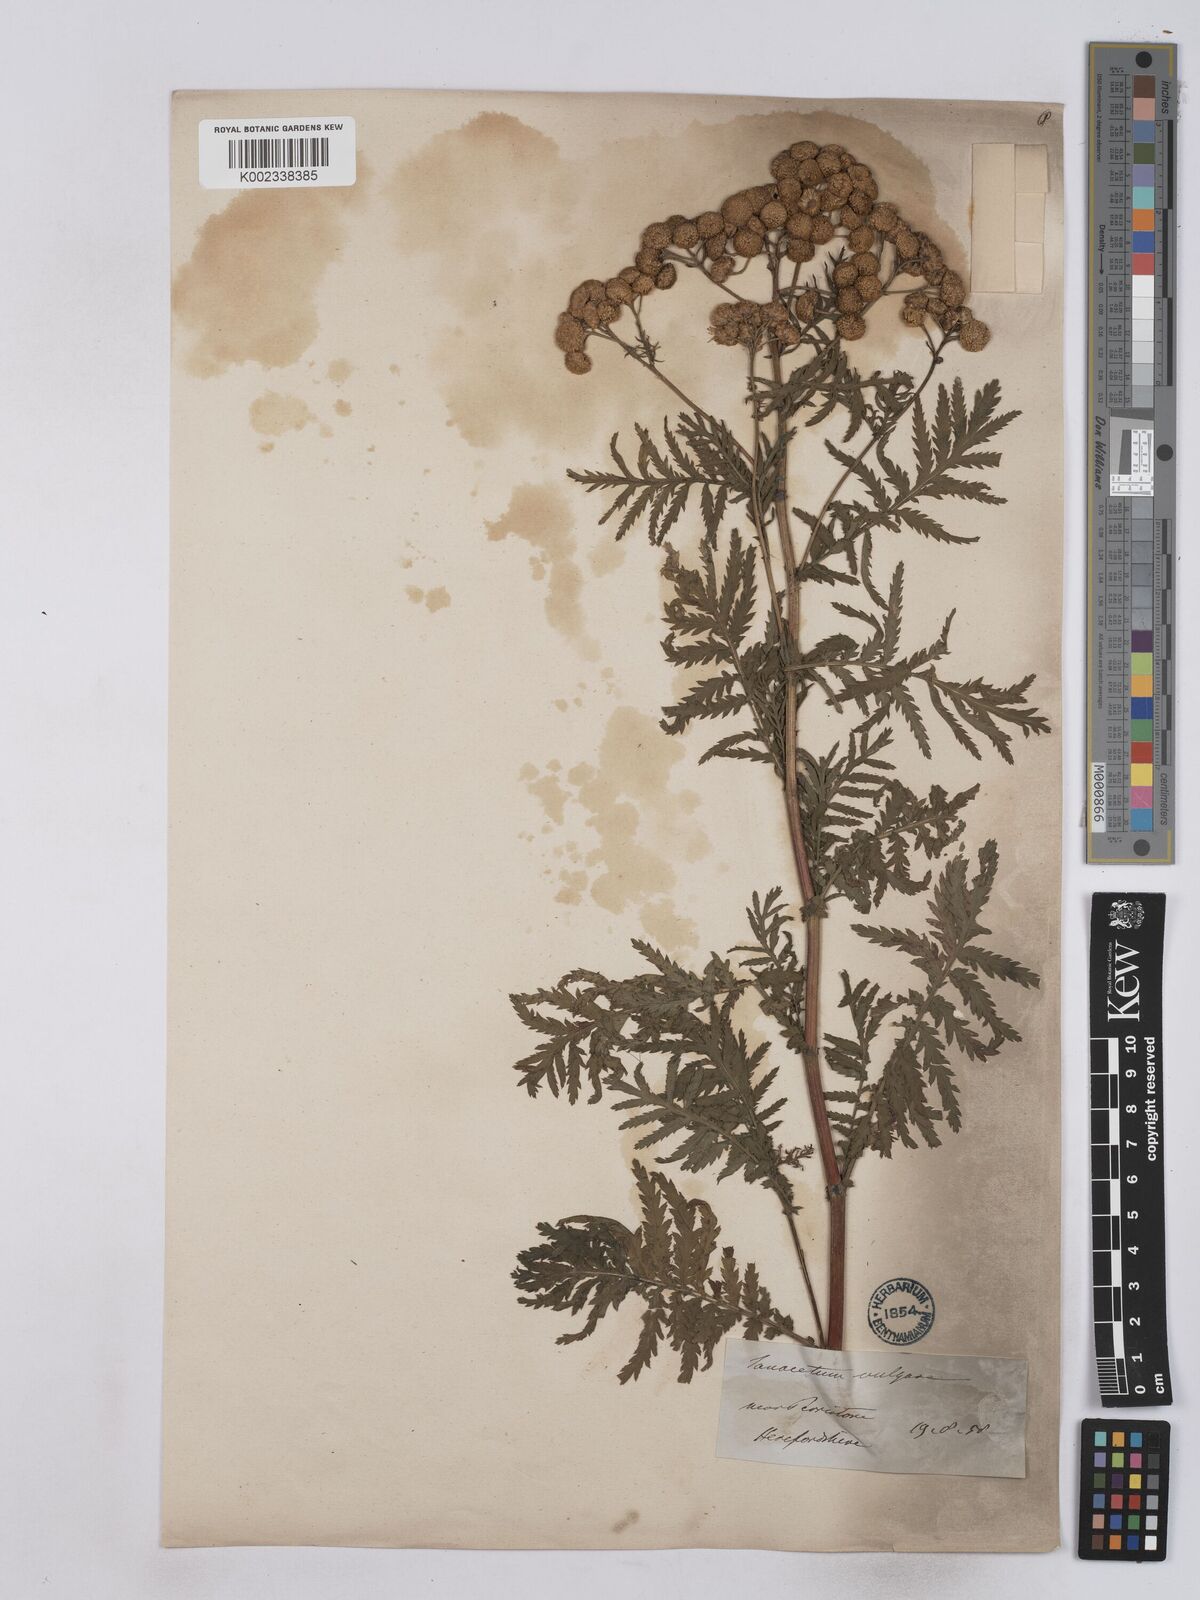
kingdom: Plantae
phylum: Tracheophyta
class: Magnoliopsida
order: Asterales
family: Asteraceae
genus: Tanacetum
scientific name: Tanacetum vulgare
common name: Common tansy
